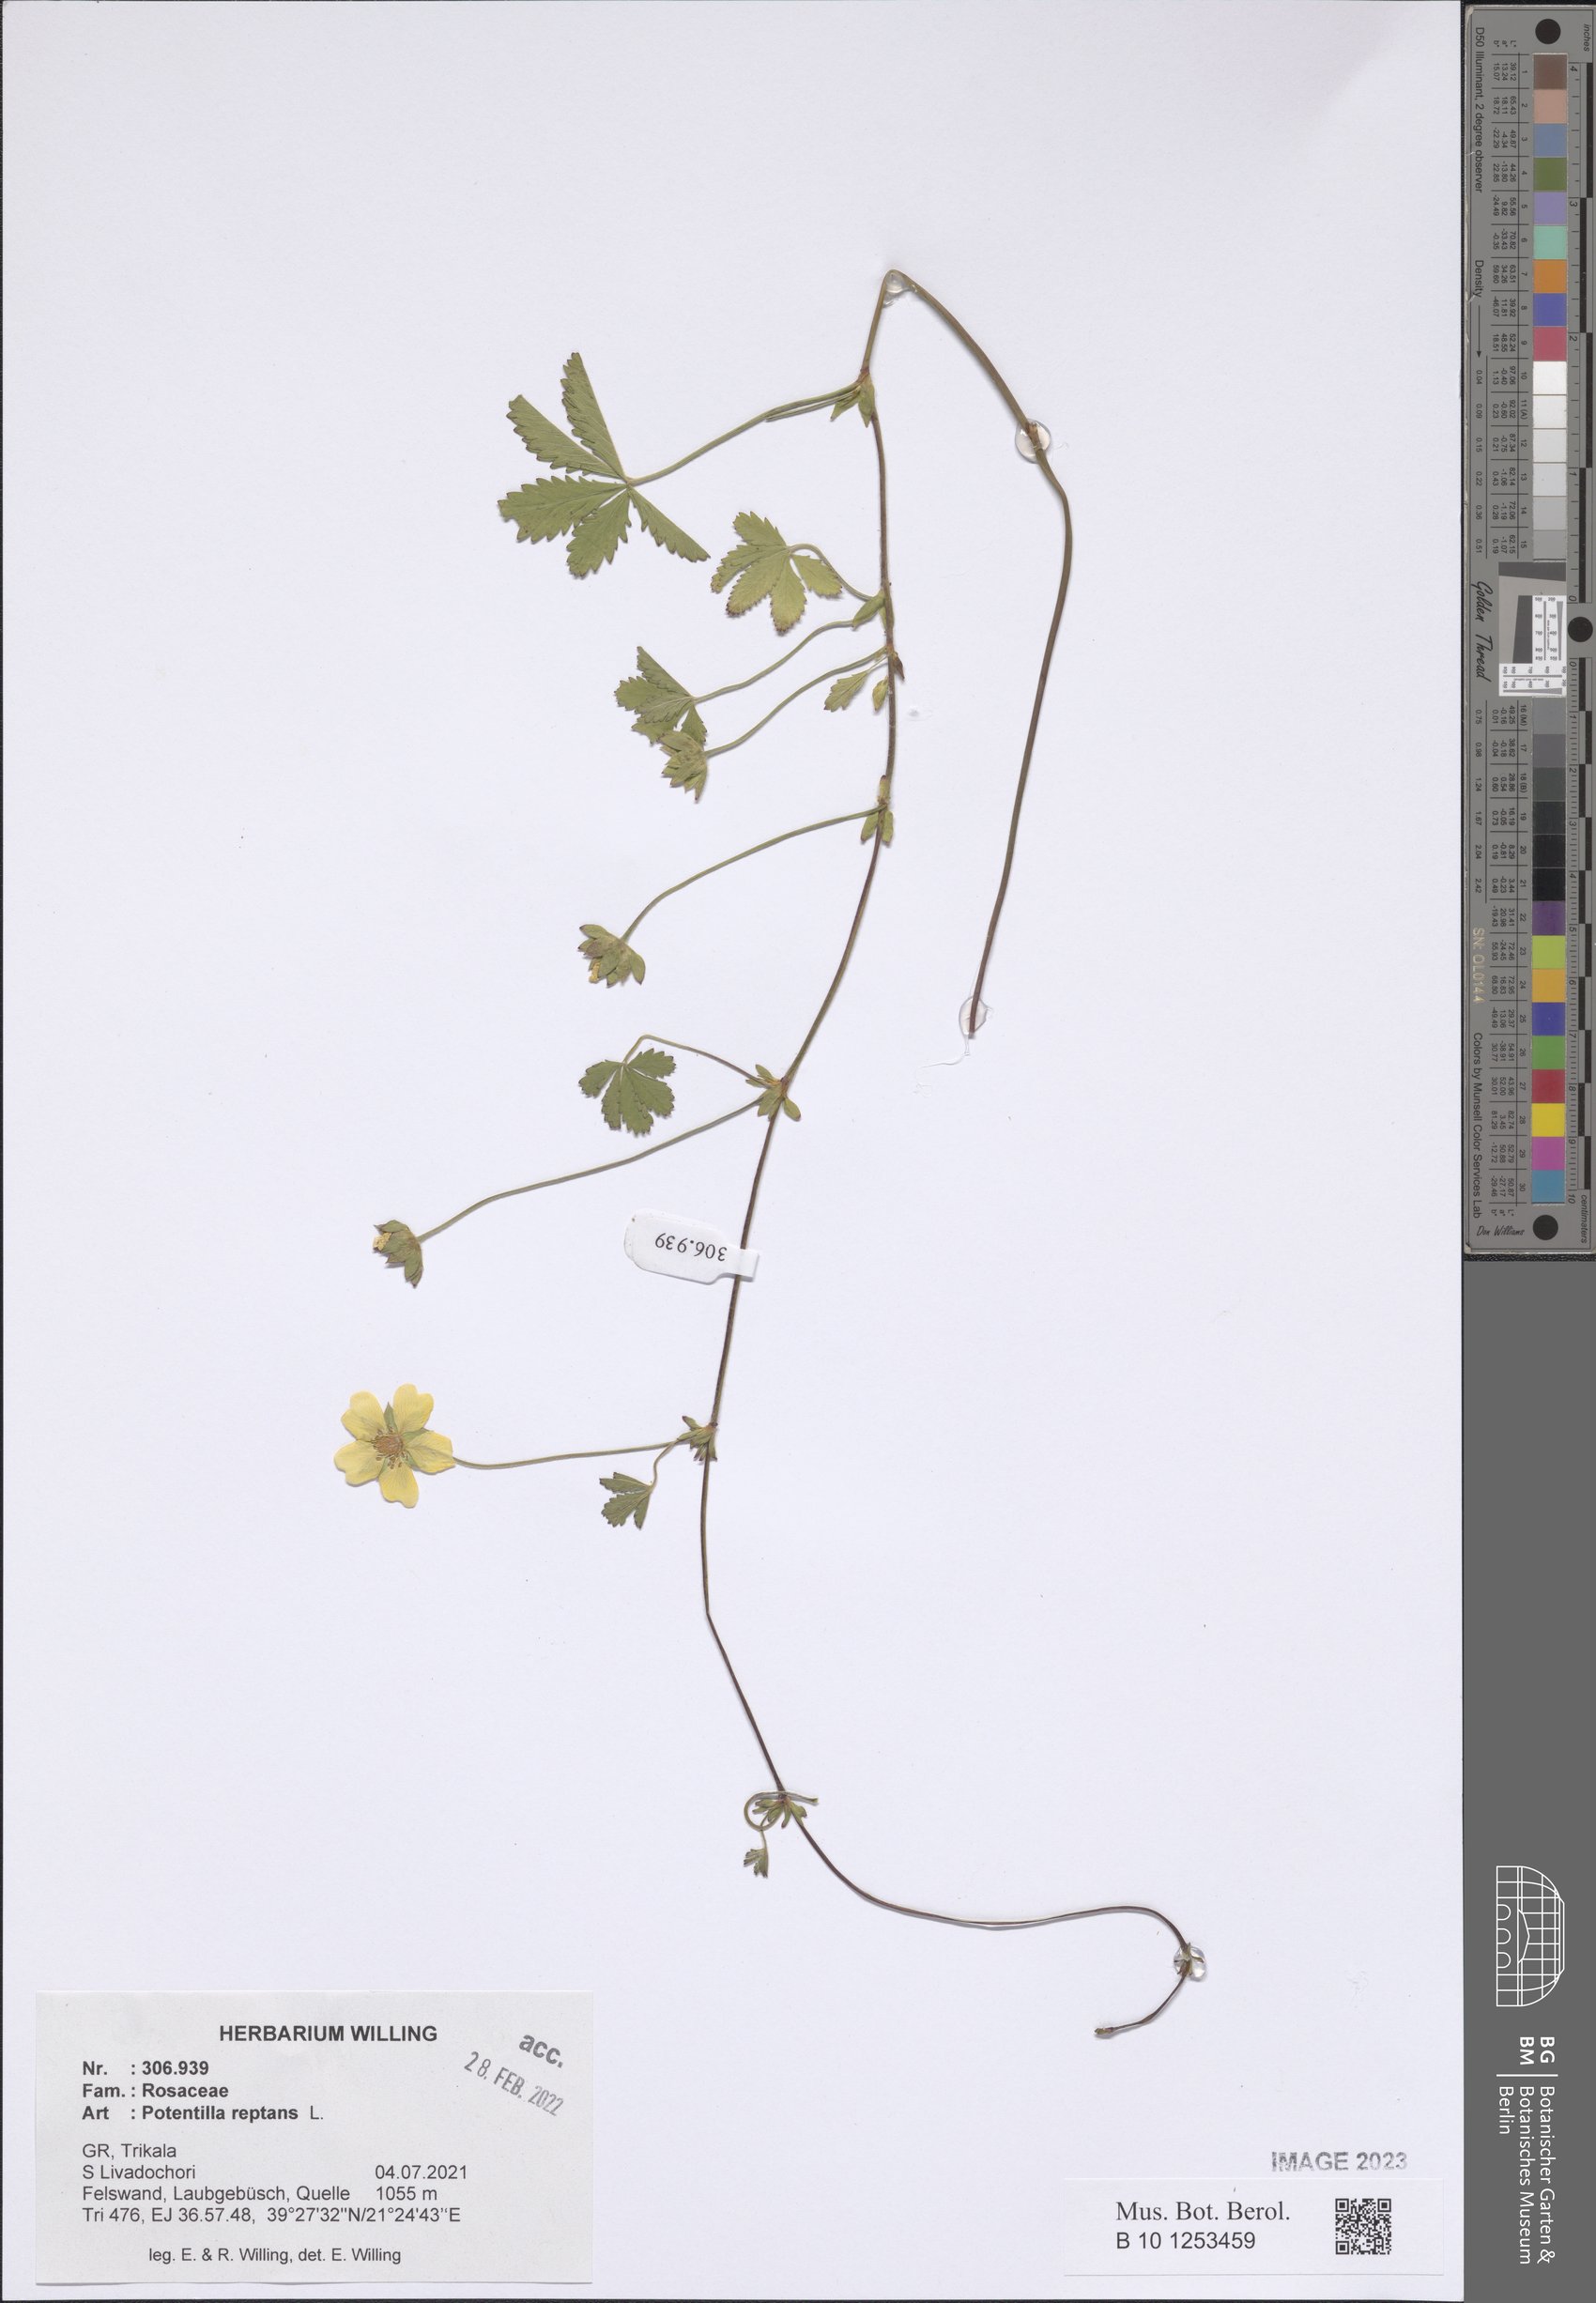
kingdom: Plantae
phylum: Tracheophyta
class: Magnoliopsida
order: Rosales
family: Rosaceae
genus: Potentilla
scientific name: Potentilla reptans
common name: Creeping cinquefoil
